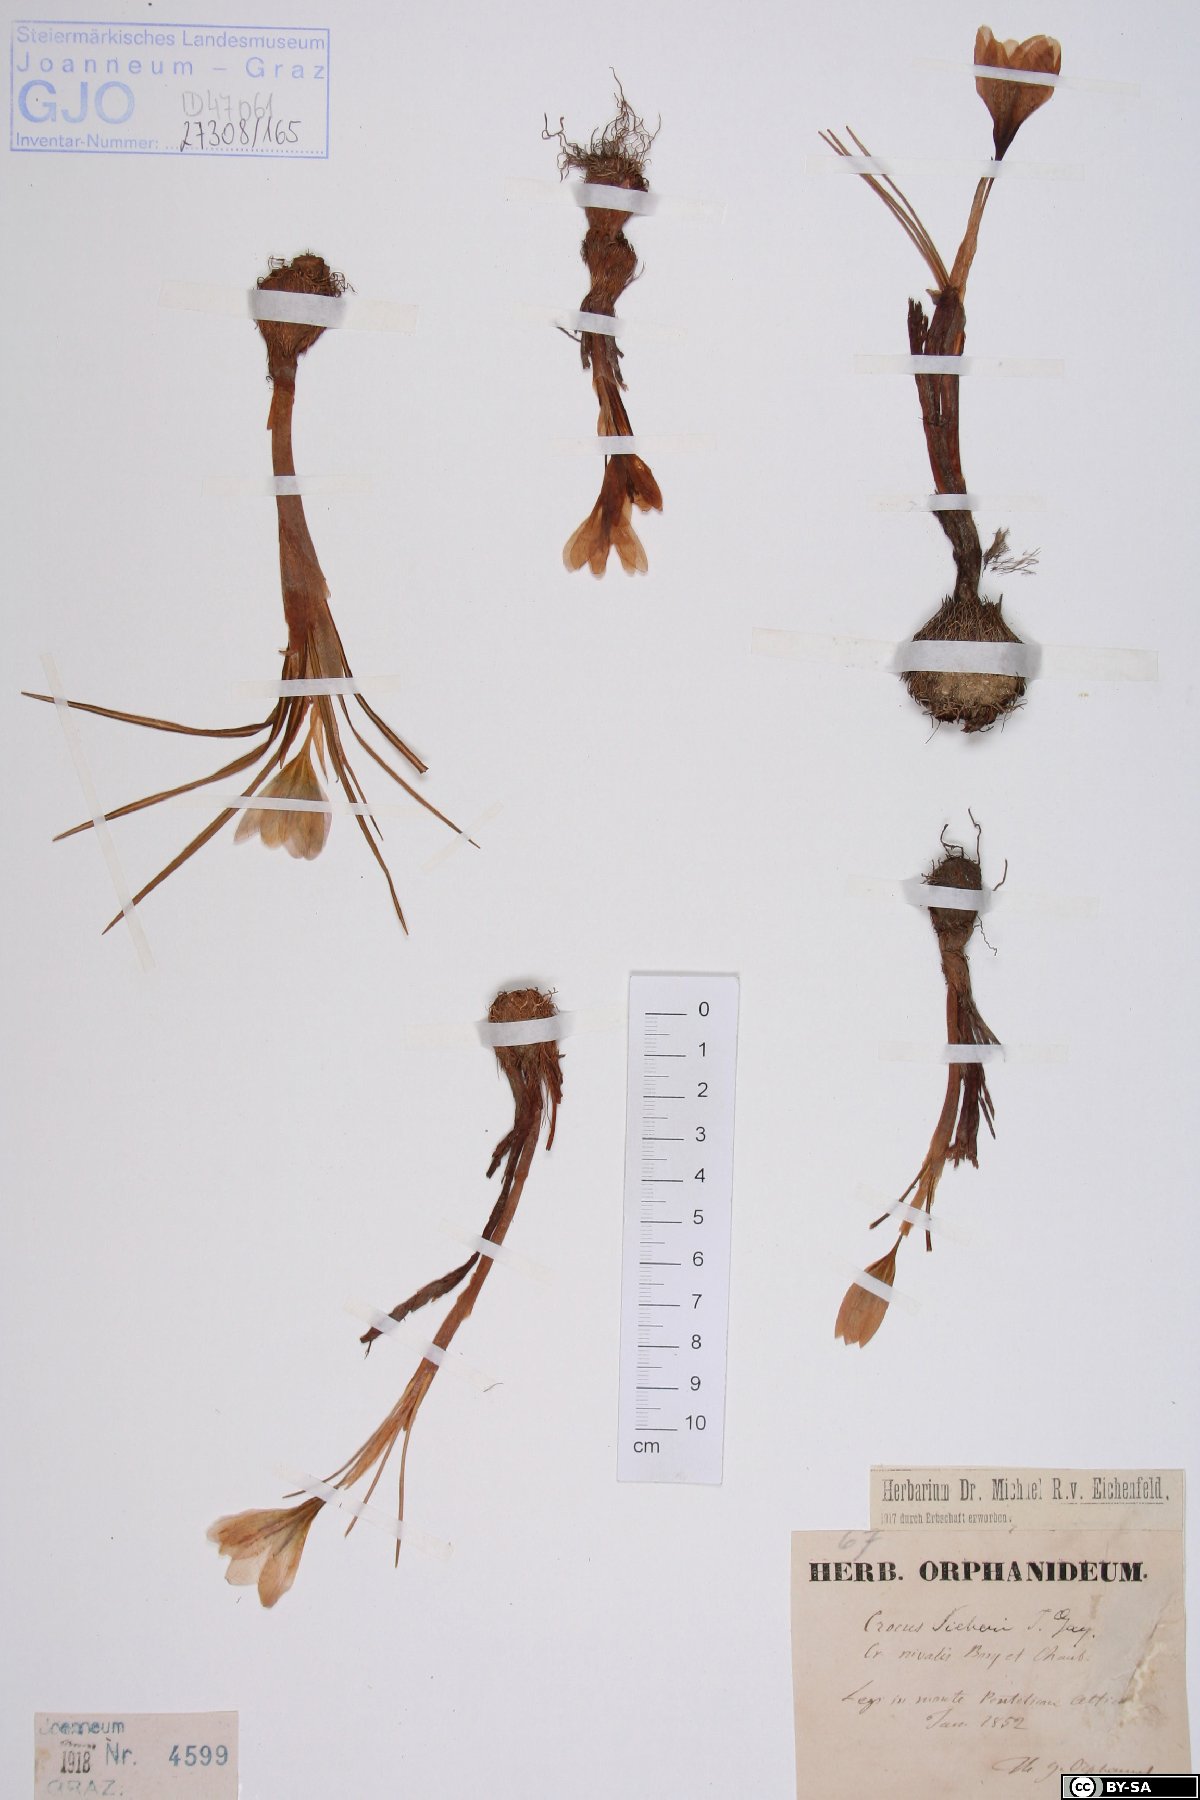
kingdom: Plantae
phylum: Tracheophyta
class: Liliopsida
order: Asparagales
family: Iridaceae
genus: Crocus
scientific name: Crocus sieberi
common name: Sieber's crocus
